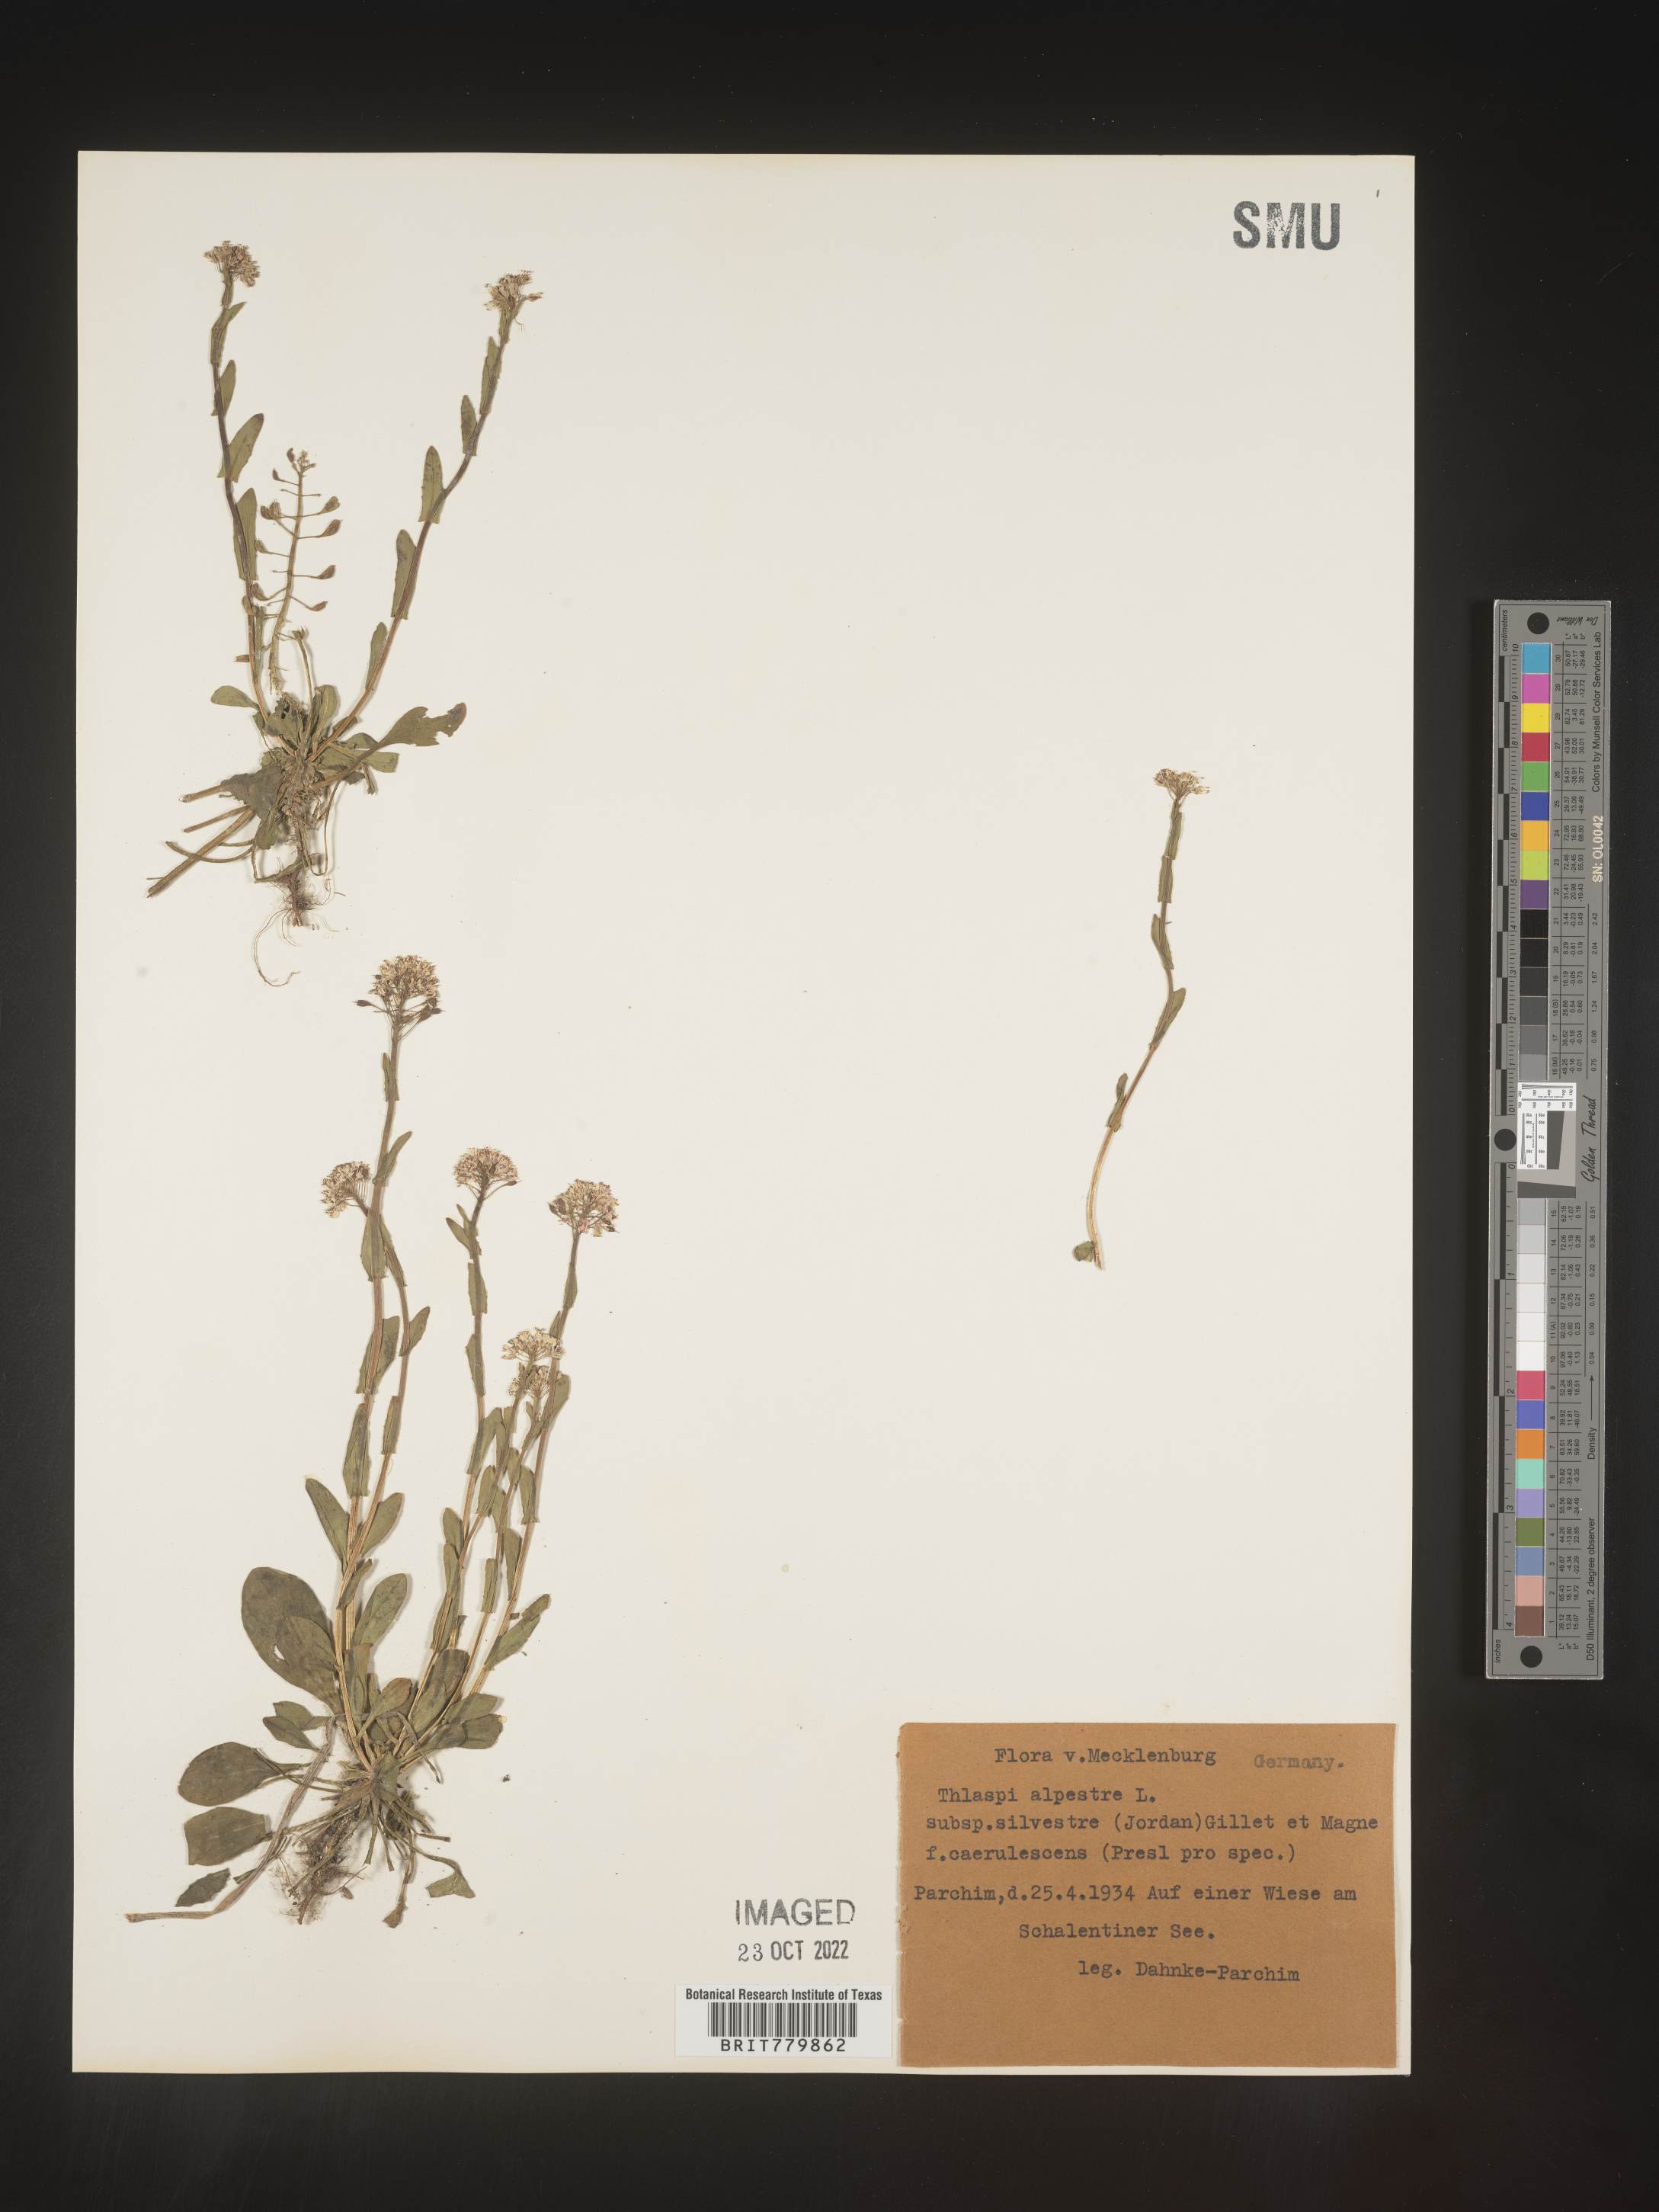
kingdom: Plantae
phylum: Tracheophyta
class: Magnoliopsida
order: Brassicales
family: Brassicaceae
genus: Thlaspi
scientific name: Thlaspi
